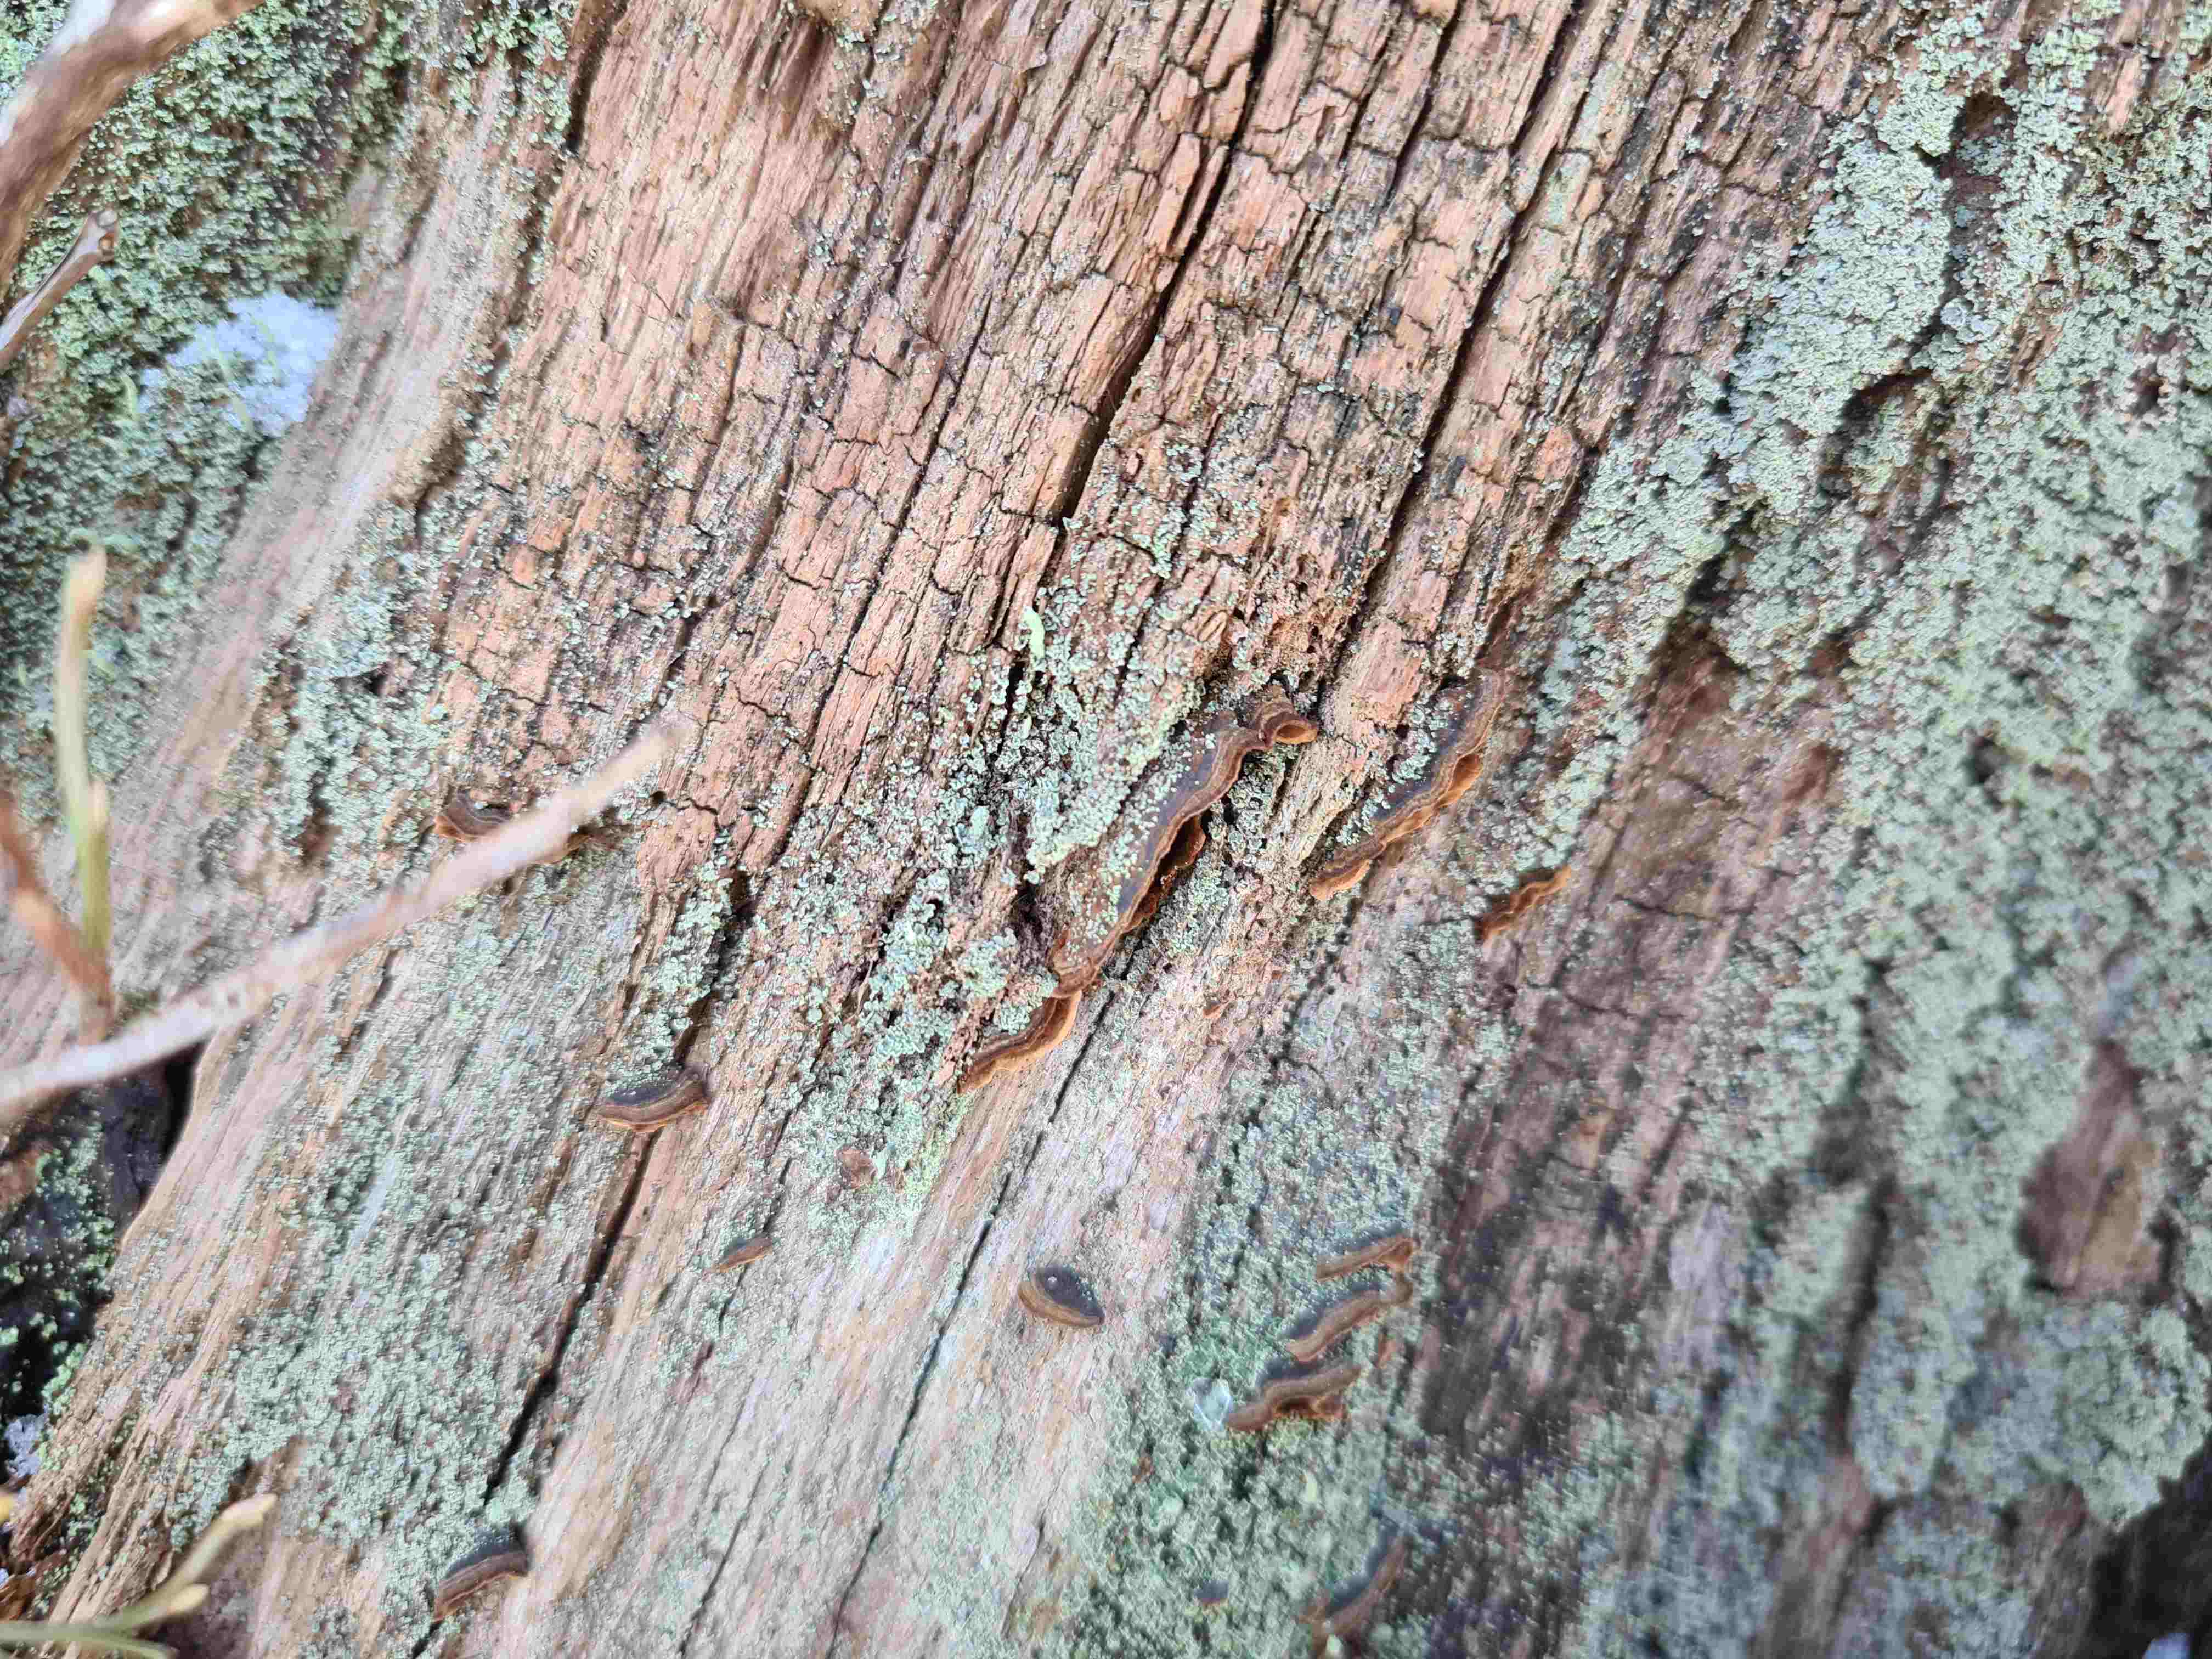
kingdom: Fungi
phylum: Basidiomycota
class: Agaricomycetes
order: Hymenochaetales
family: Hymenochaetaceae
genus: Hymenochaete
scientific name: Hymenochaete rubiginosa
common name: stiv ruslædersvamp
